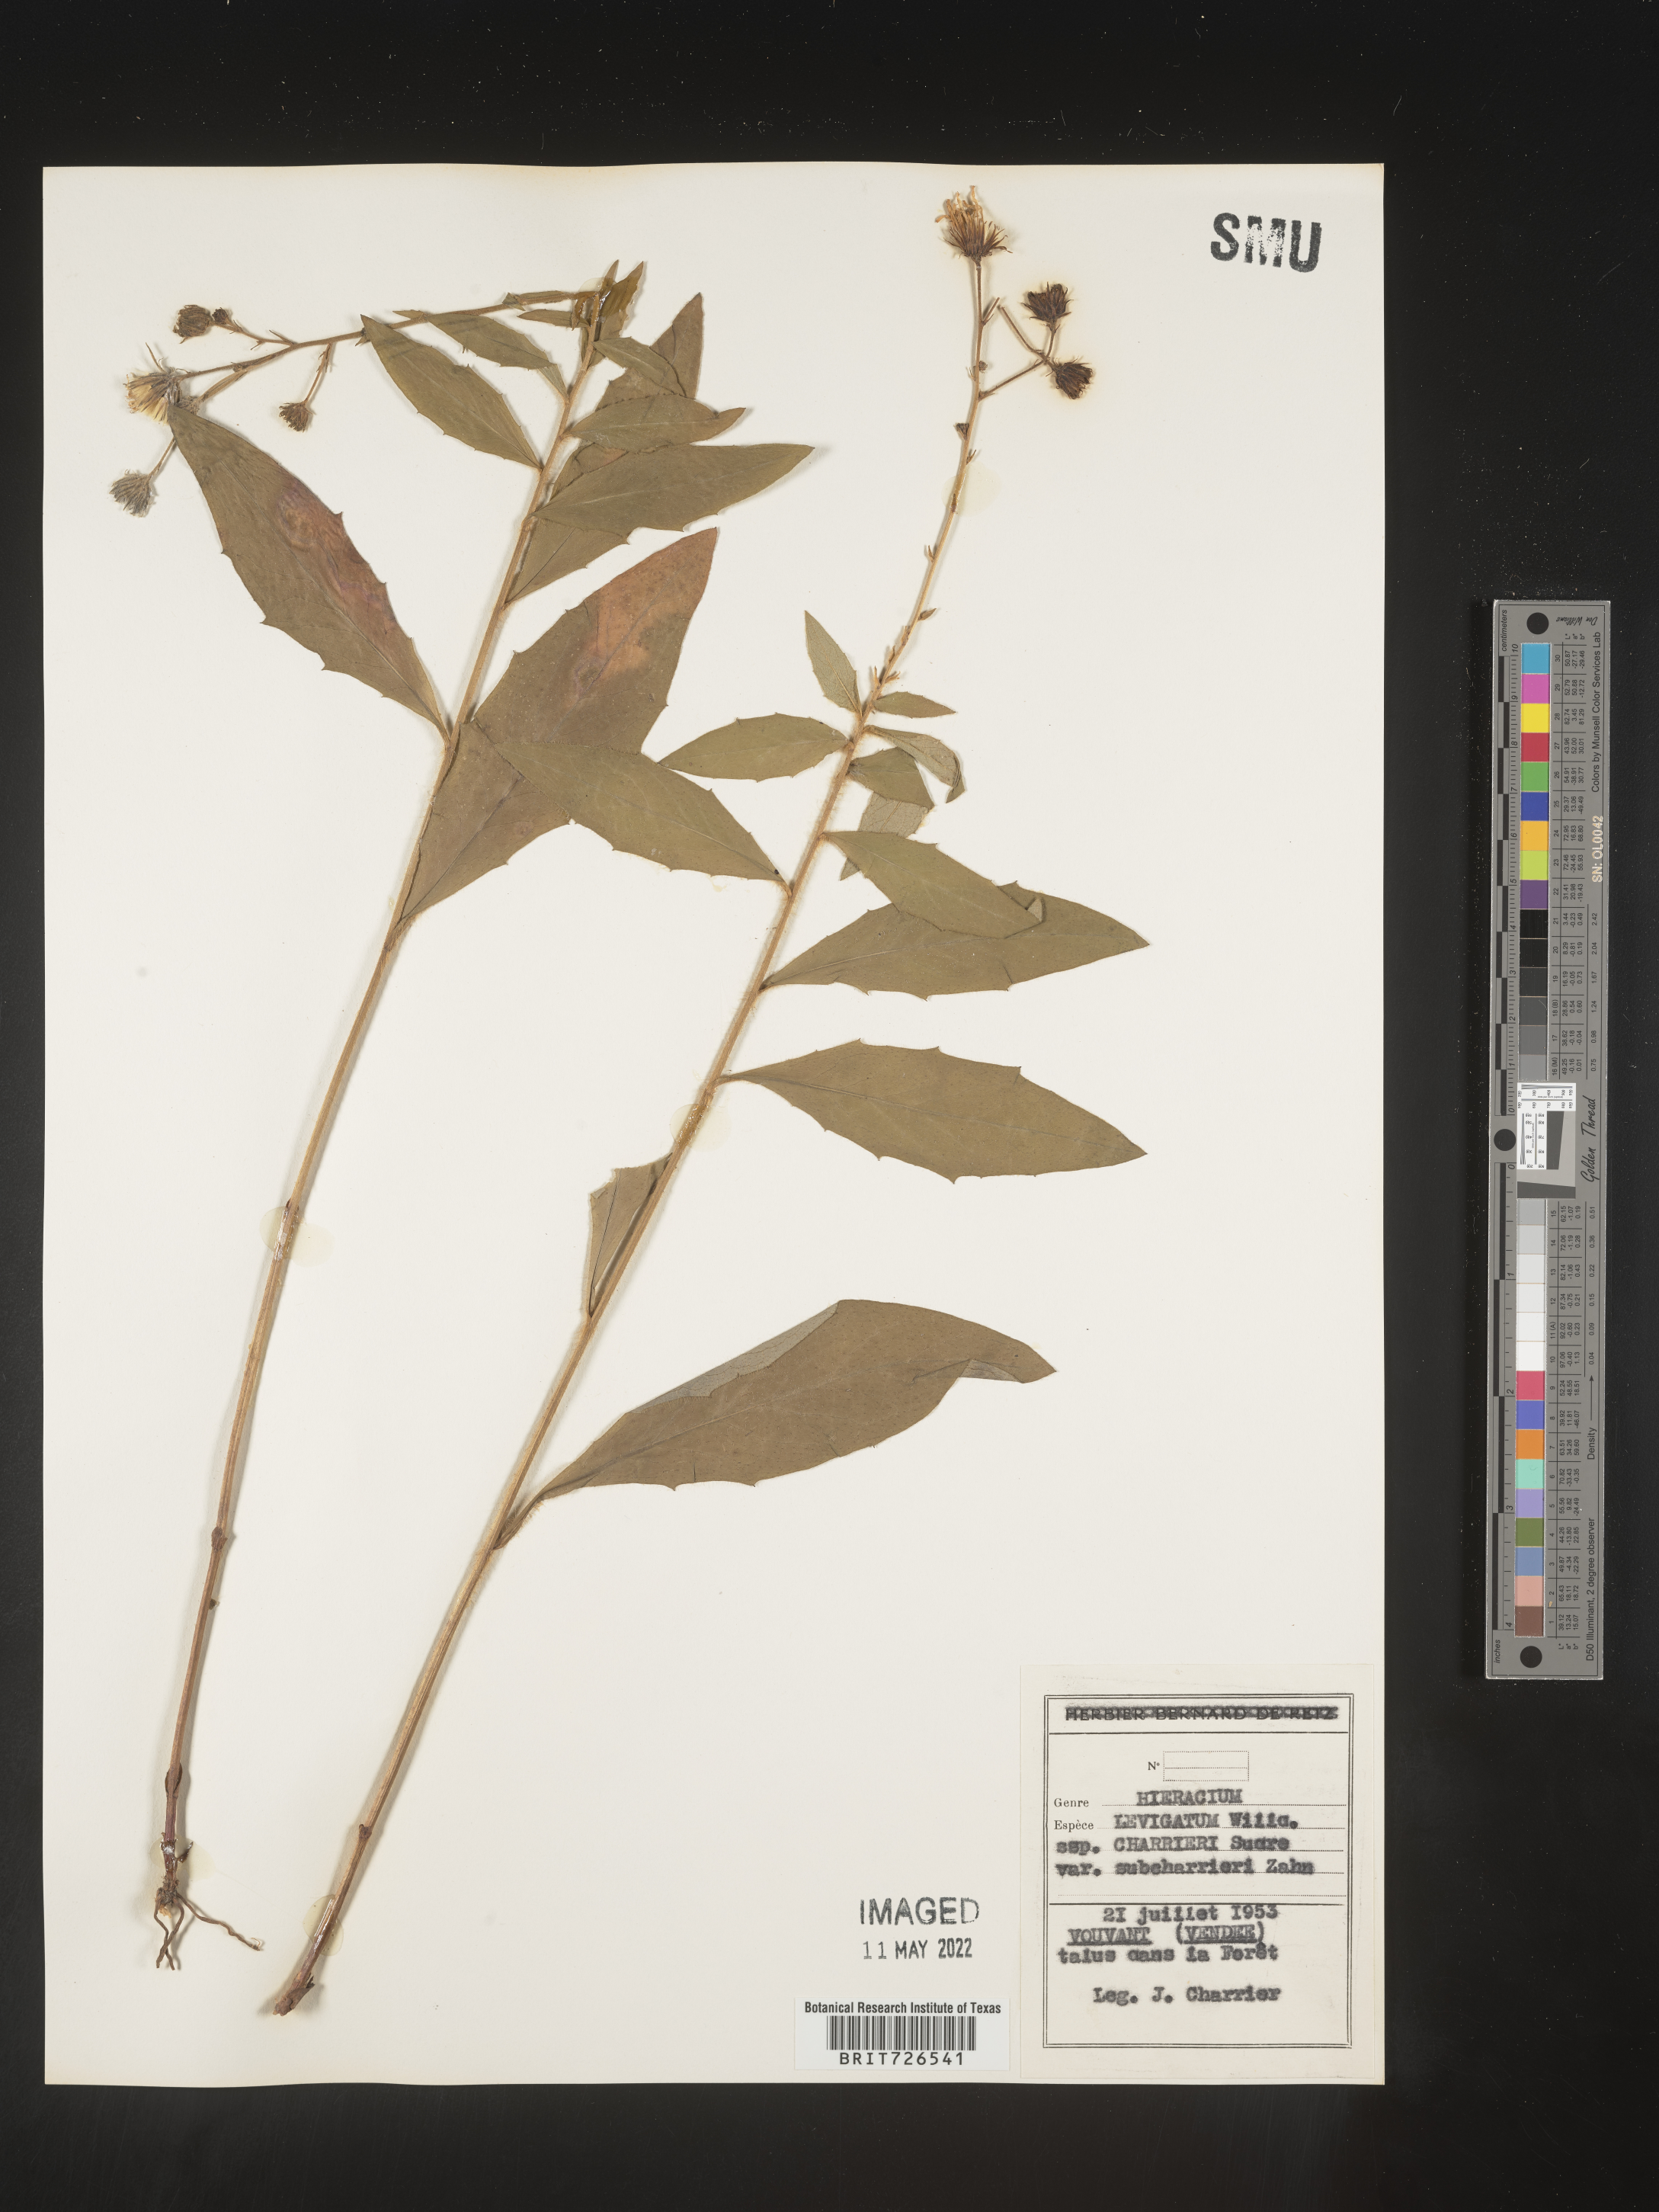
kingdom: Plantae
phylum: Tracheophyta
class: Magnoliopsida
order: Asterales
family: Asteraceae
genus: Hieracium
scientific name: Hieracium
